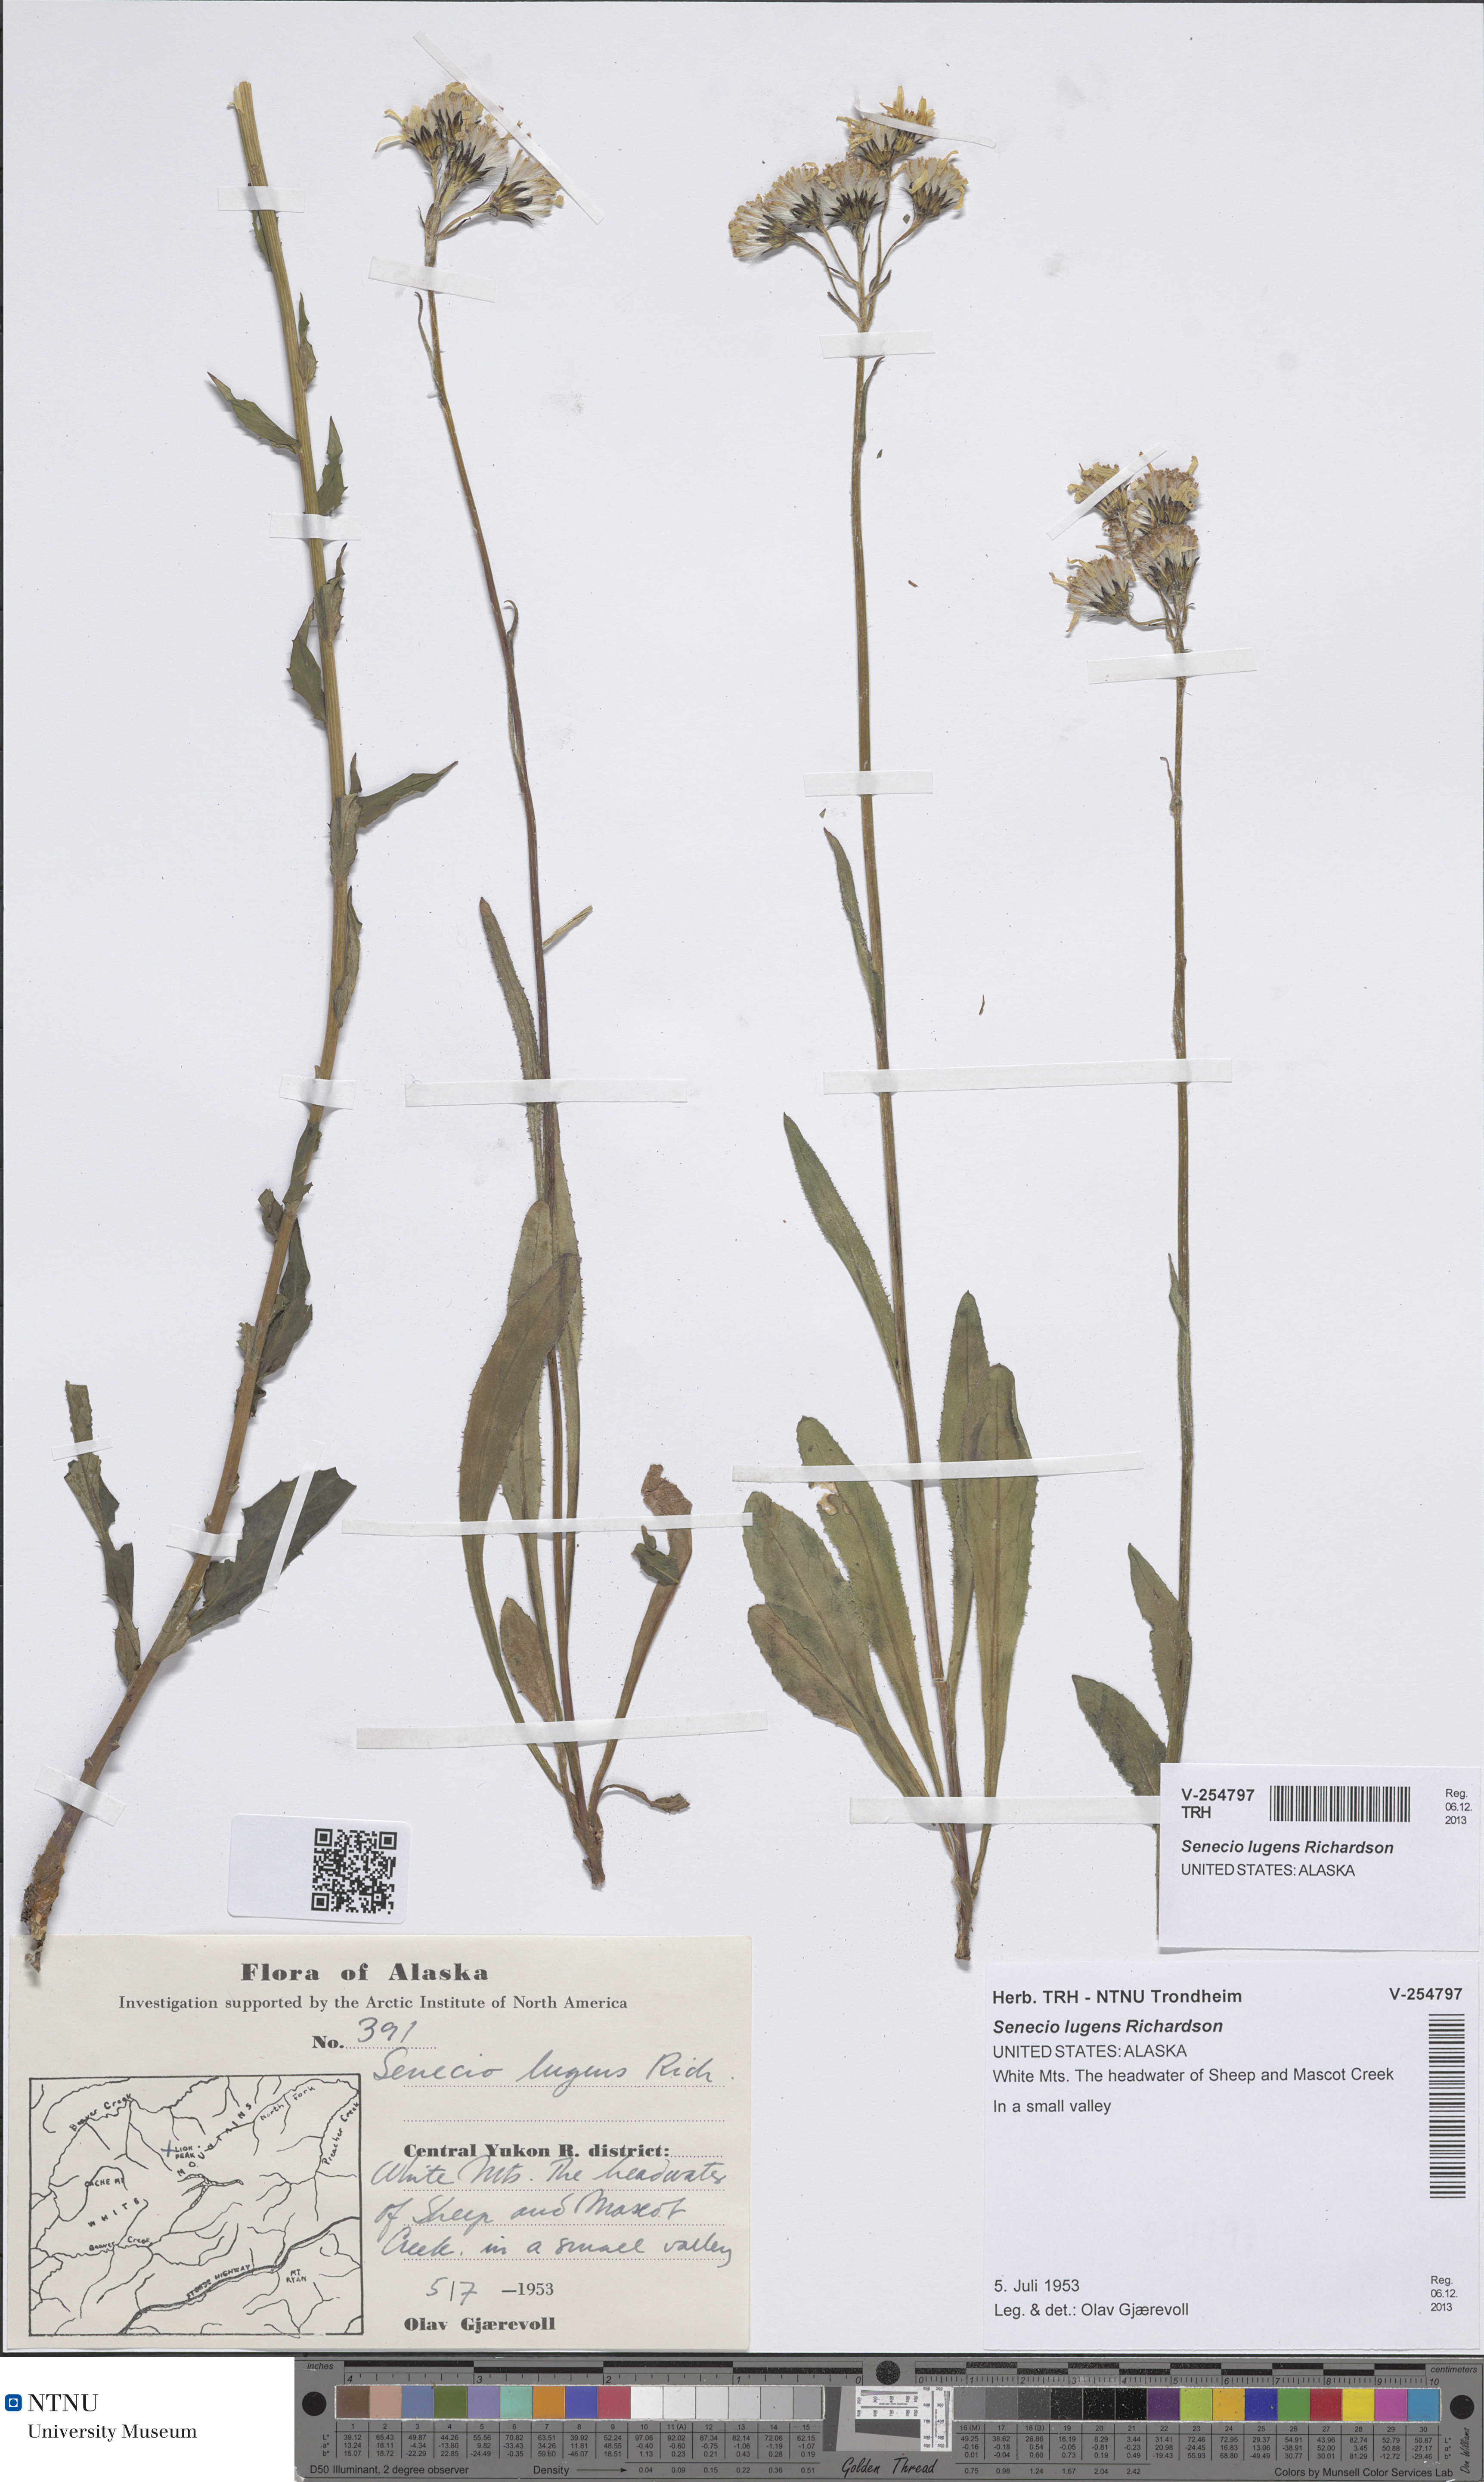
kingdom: Plantae
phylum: Tracheophyta
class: Magnoliopsida
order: Asterales
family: Asteraceae
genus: Senecio
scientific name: Senecio lugens
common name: Black-tip groundsel
